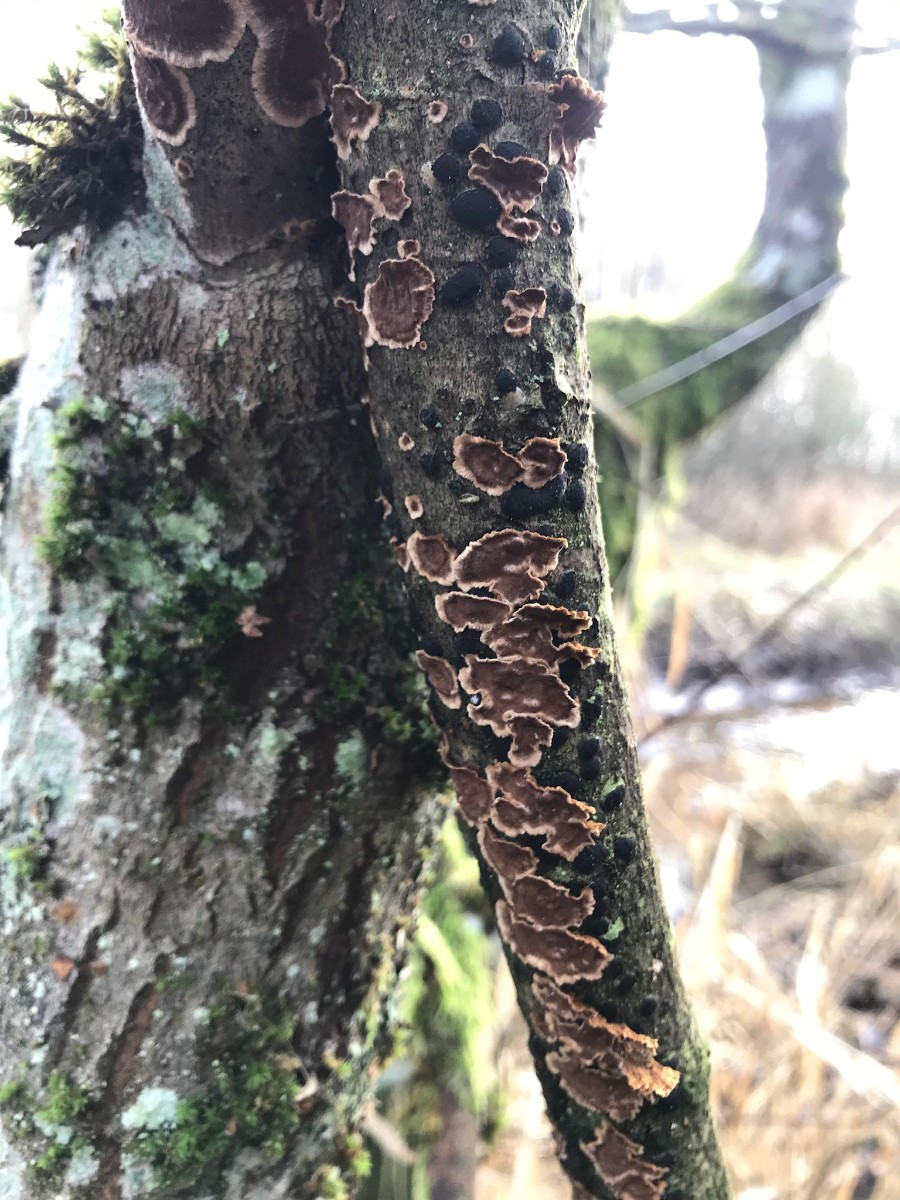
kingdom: Fungi
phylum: Basidiomycota
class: Agaricomycetes
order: Hymenochaetales
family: Hymenochaetaceae
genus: Hydnoporia
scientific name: Hydnoporia tabacina
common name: tobaksbrun ruslædersvamp
